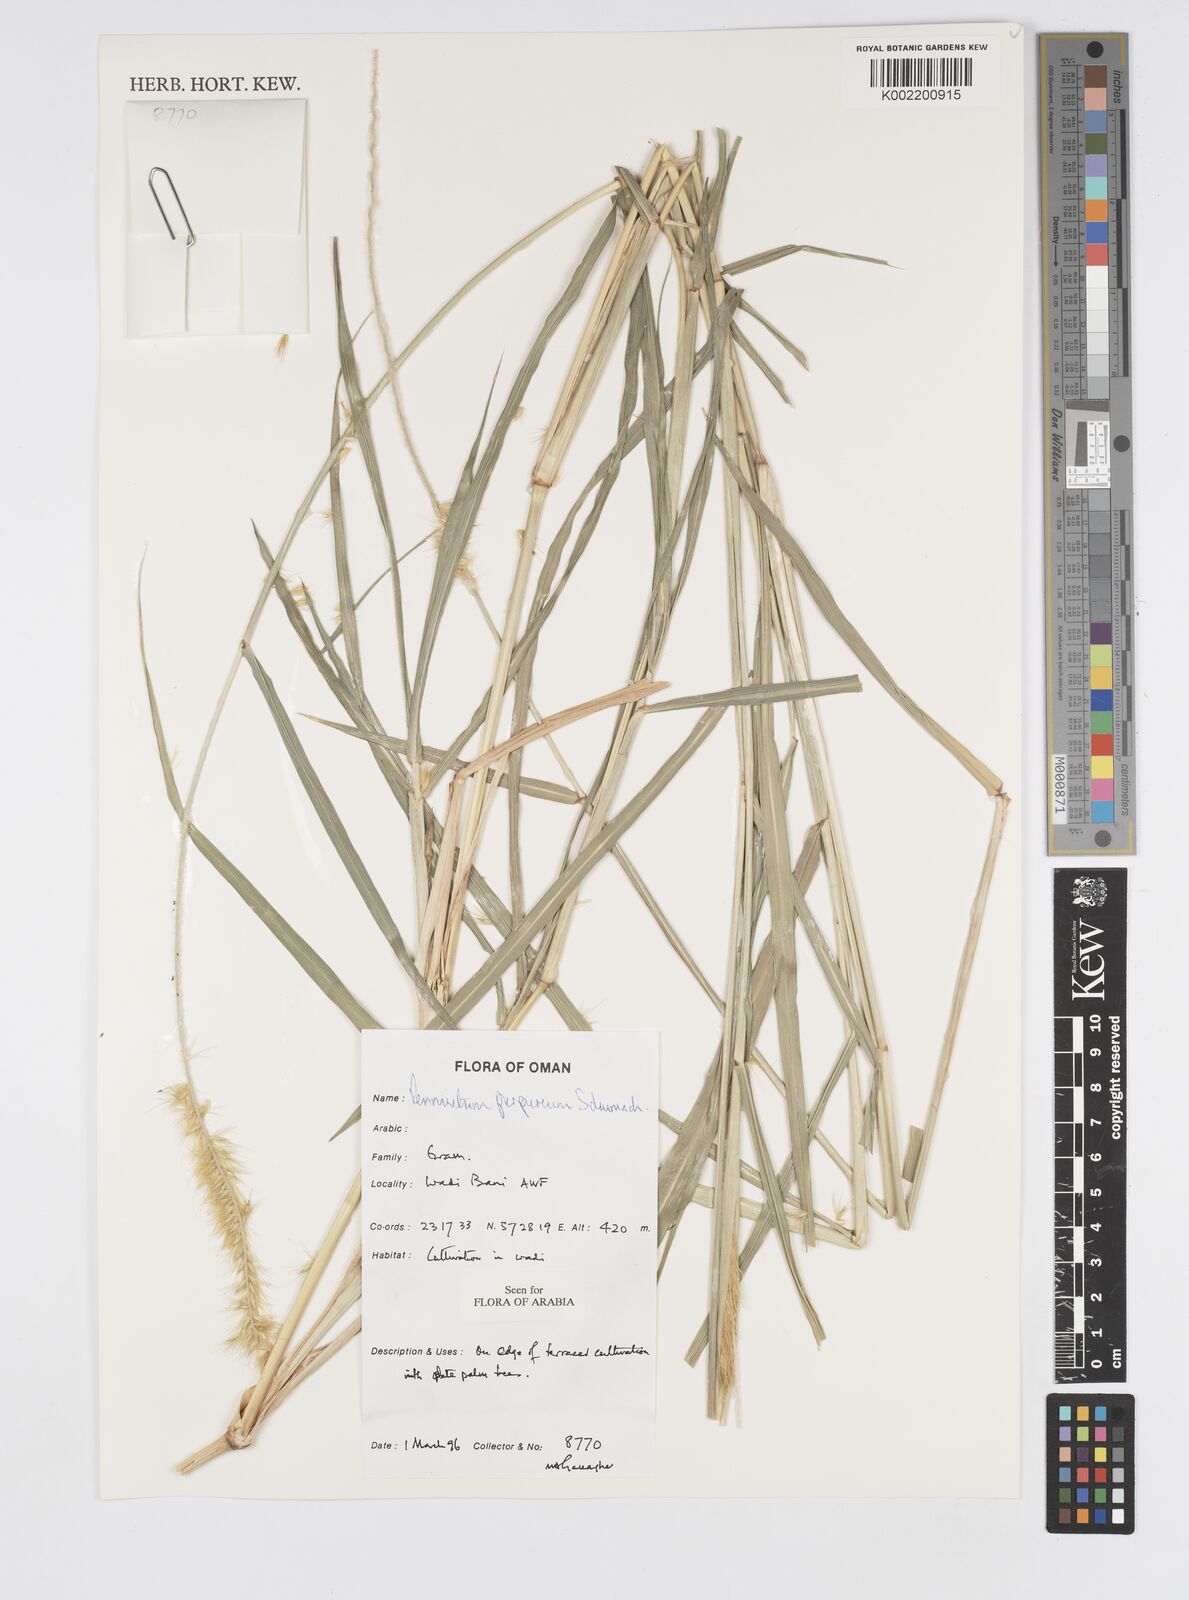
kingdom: Plantae
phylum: Tracheophyta
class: Liliopsida
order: Poales
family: Poaceae
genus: Cenchrus
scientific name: Cenchrus purpureus
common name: Elephant grass
